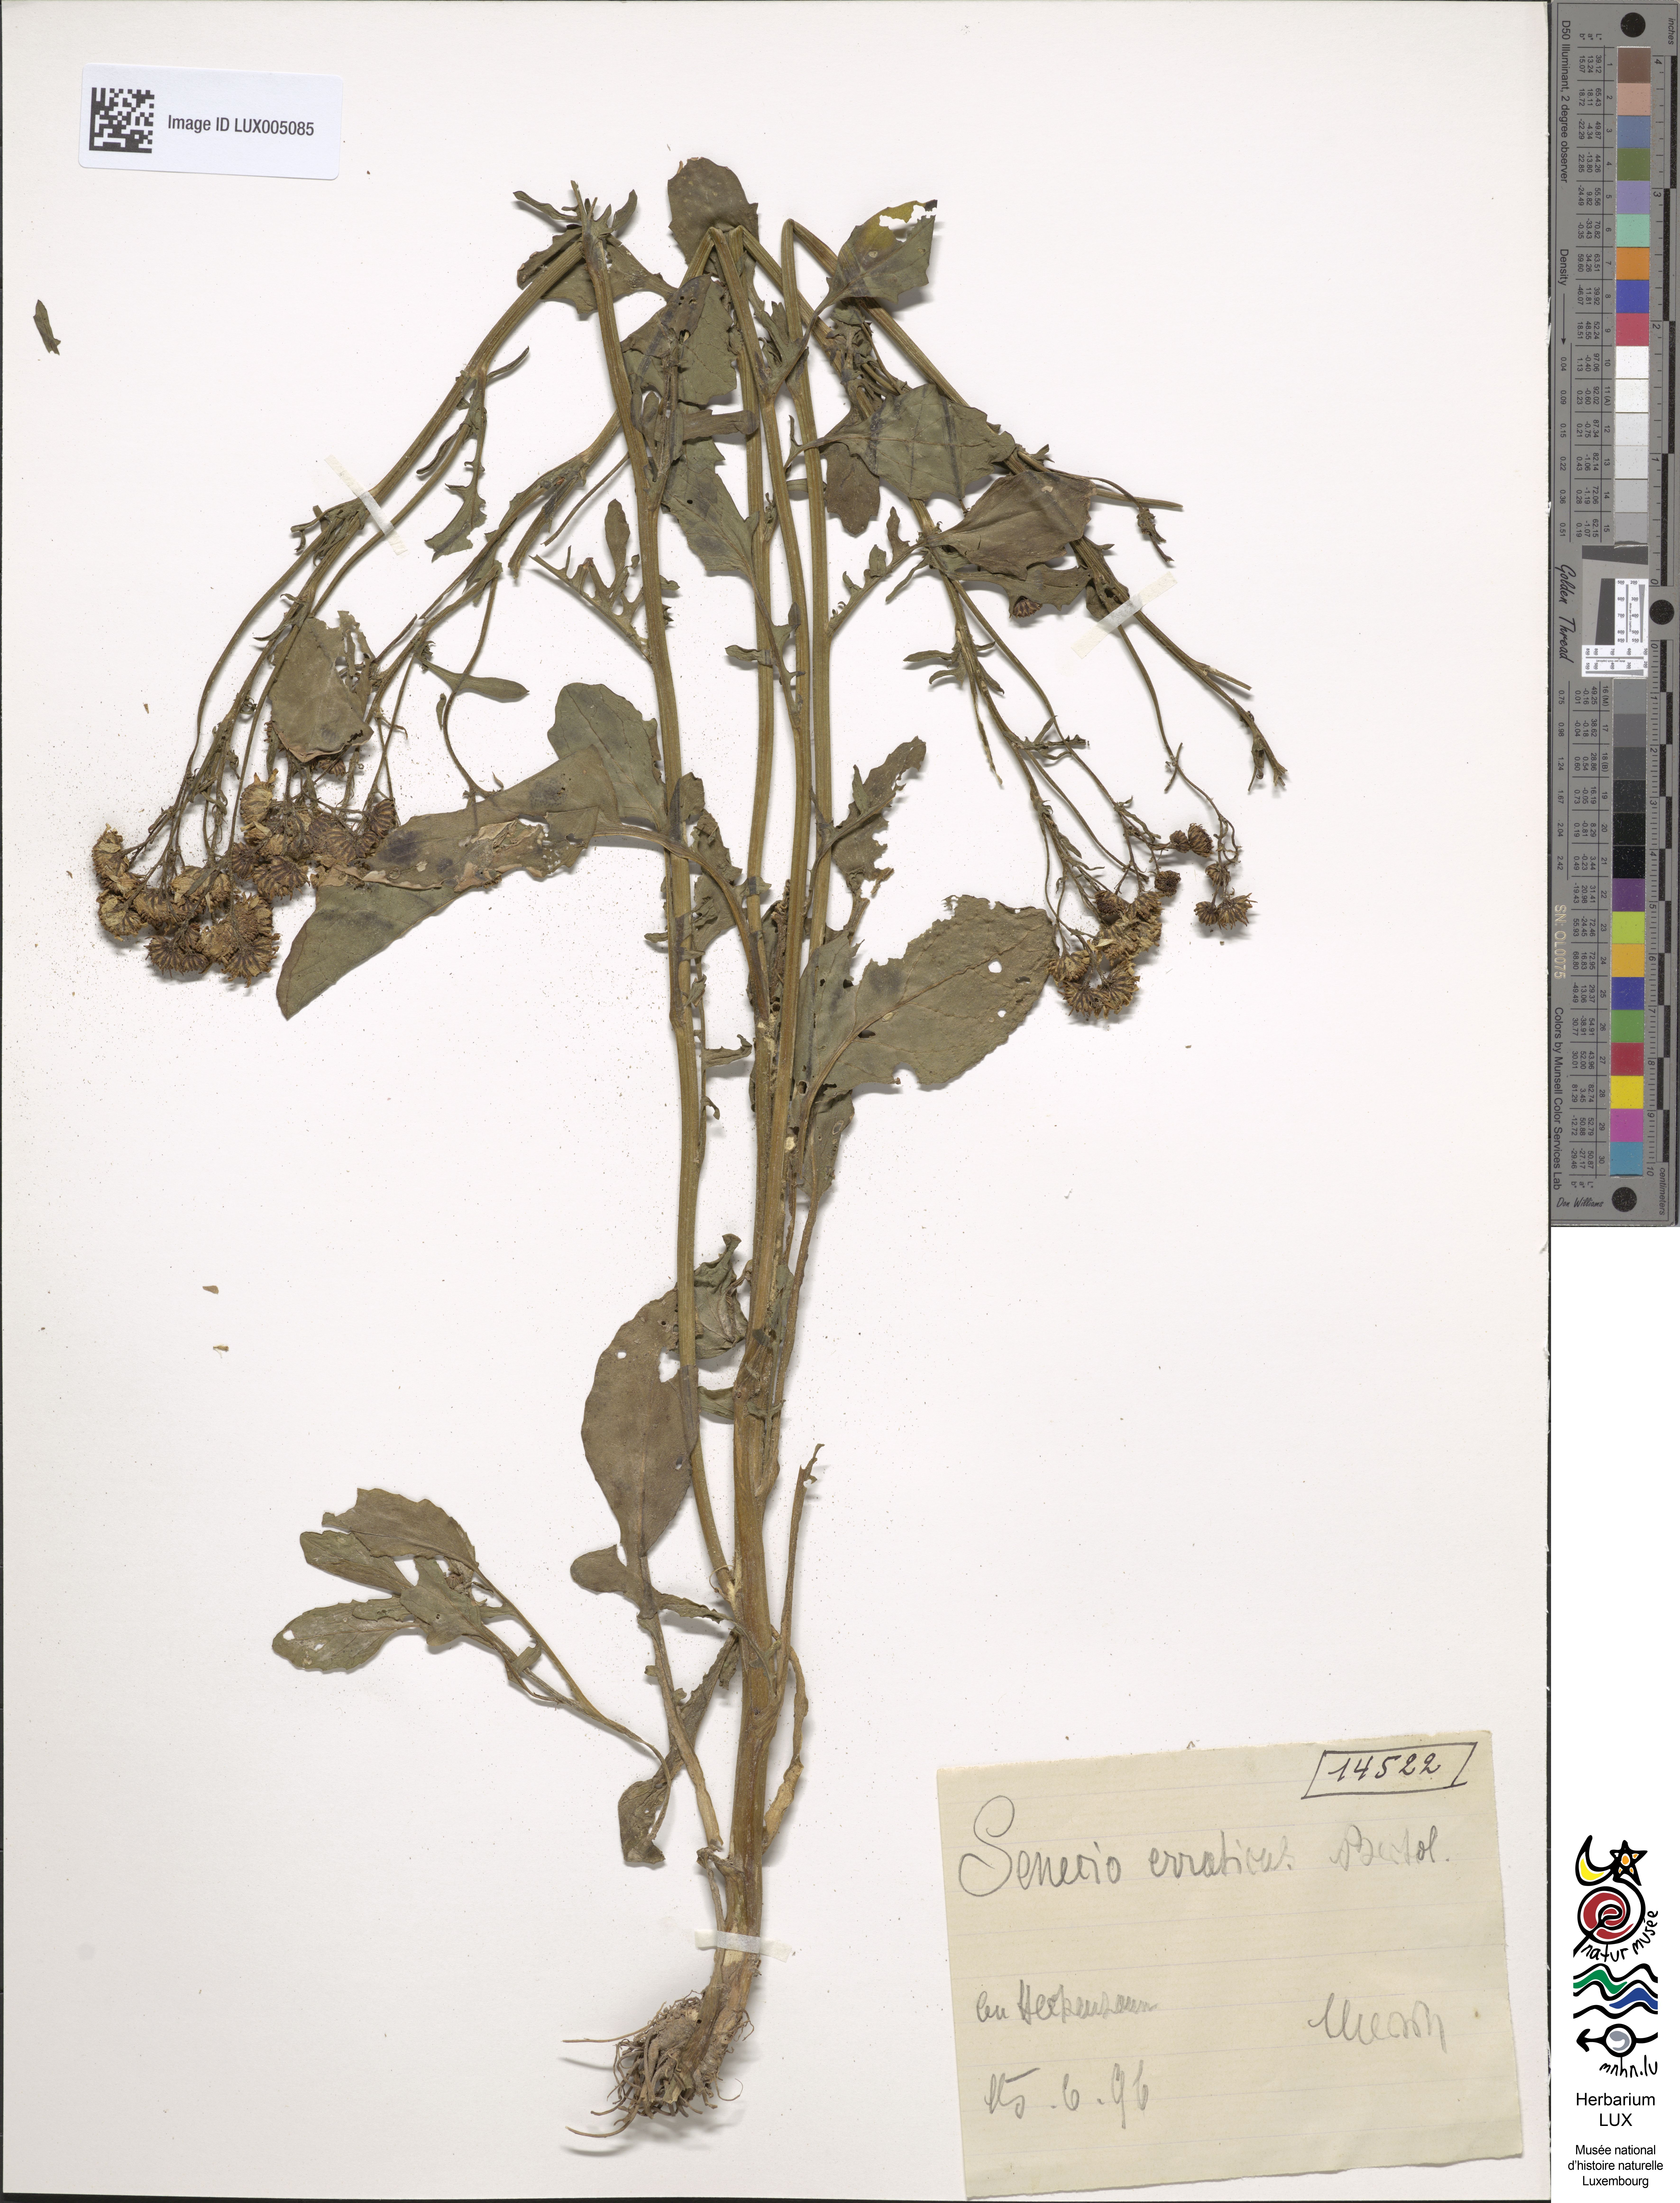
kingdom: Plantae
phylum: Tracheophyta
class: Magnoliopsida
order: Asterales
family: Asteraceae
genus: Jacobaea
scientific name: Jacobaea erratica
